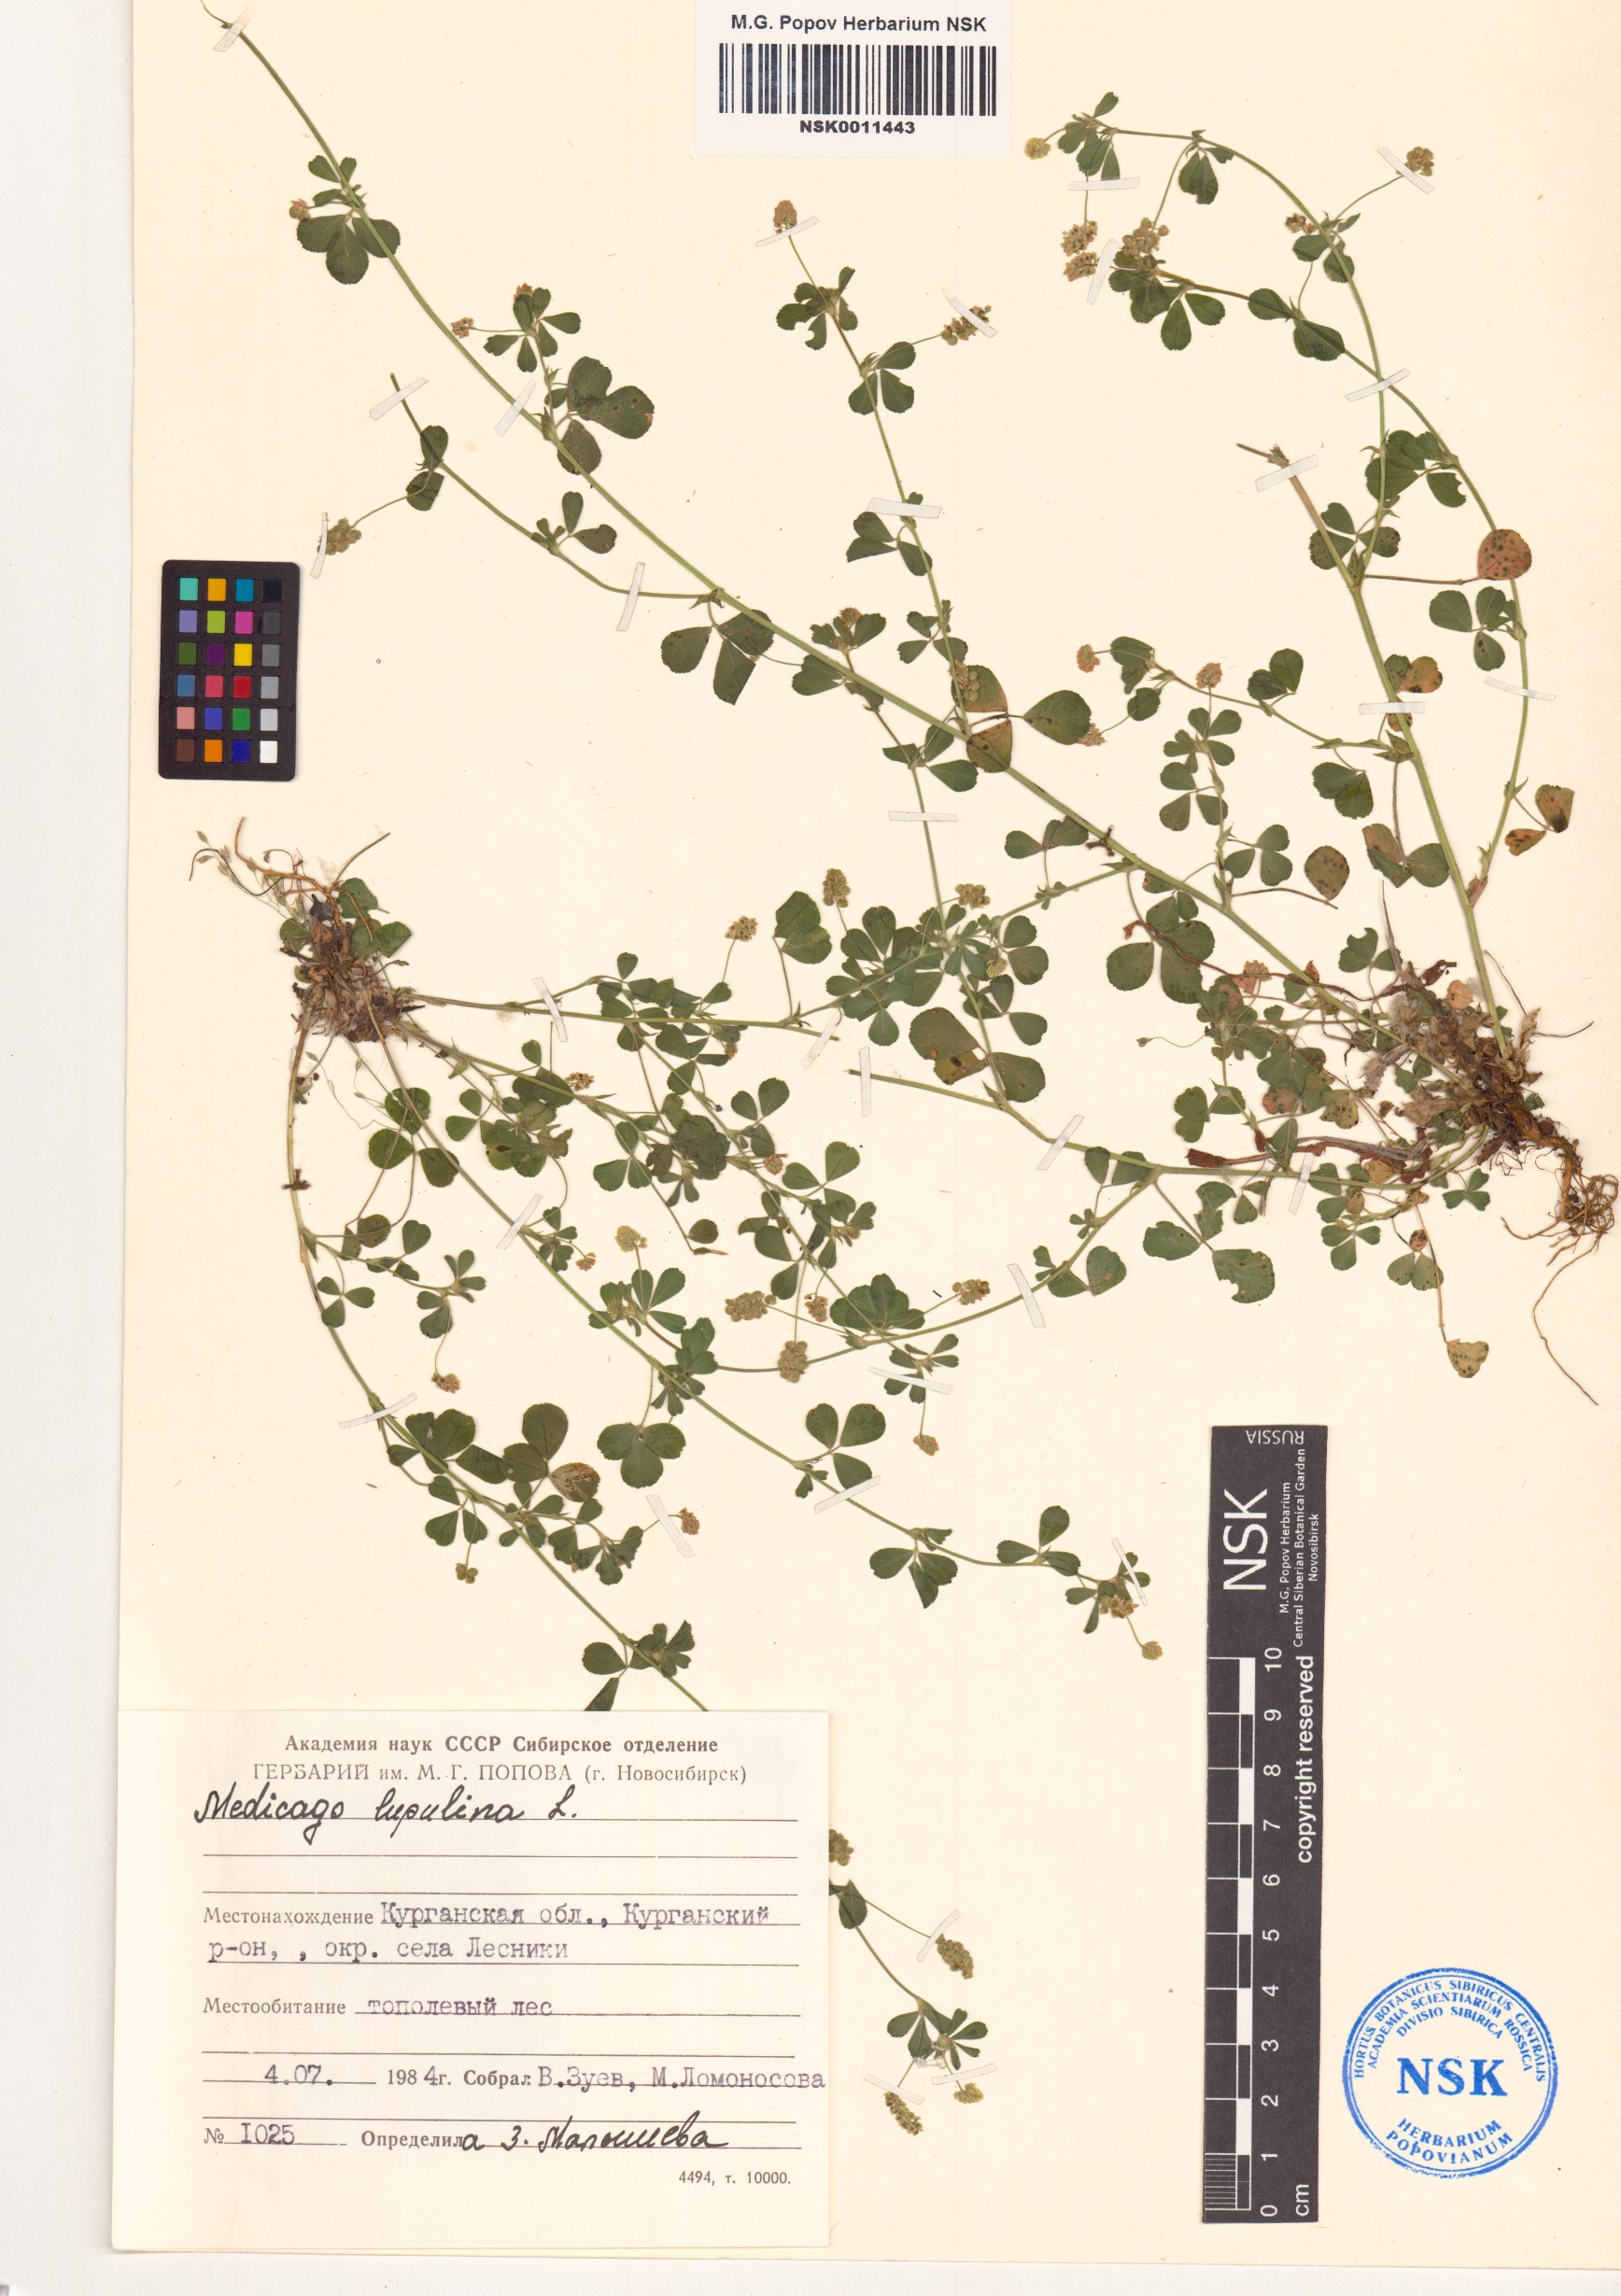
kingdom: Plantae
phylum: Tracheophyta
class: Magnoliopsida
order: Fabales
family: Fabaceae
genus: Medicago
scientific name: Medicago lupulina
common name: Black medick
